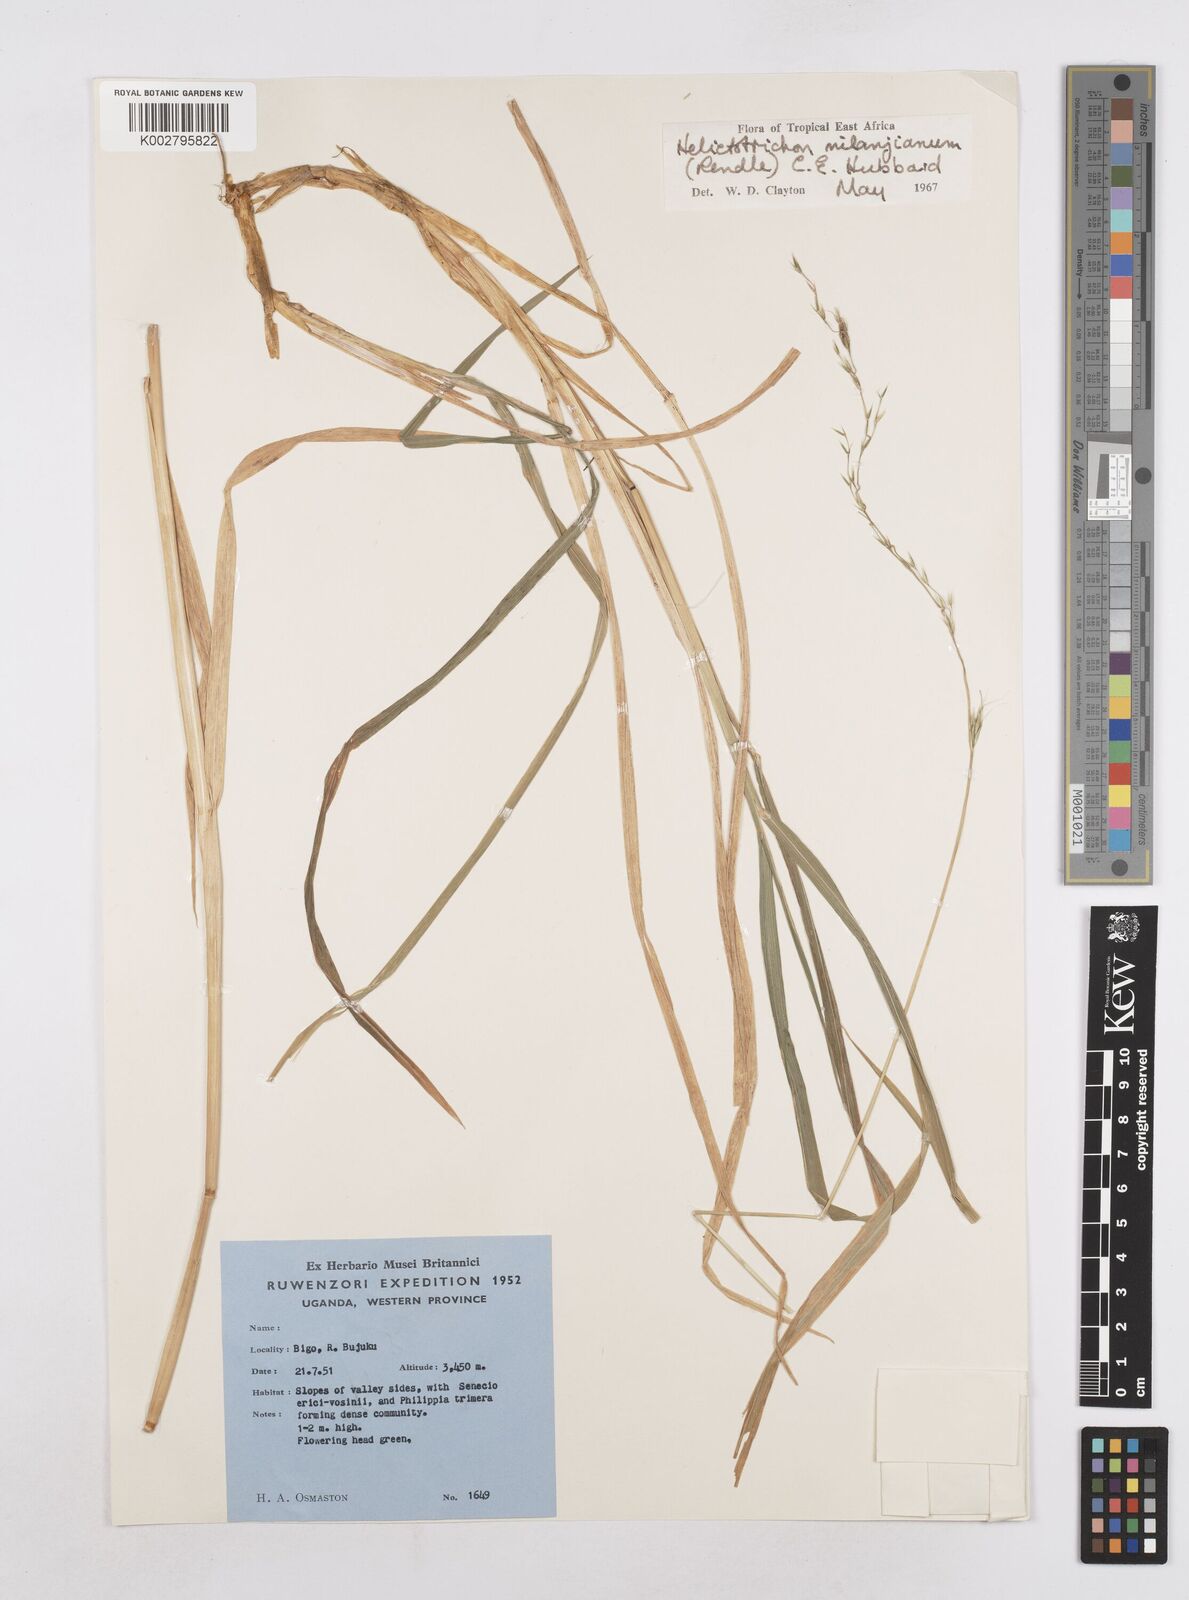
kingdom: Plantae
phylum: Tracheophyta
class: Liliopsida
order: Poales
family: Poaceae
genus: Trisetopsis
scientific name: Trisetopsis milanjiana
